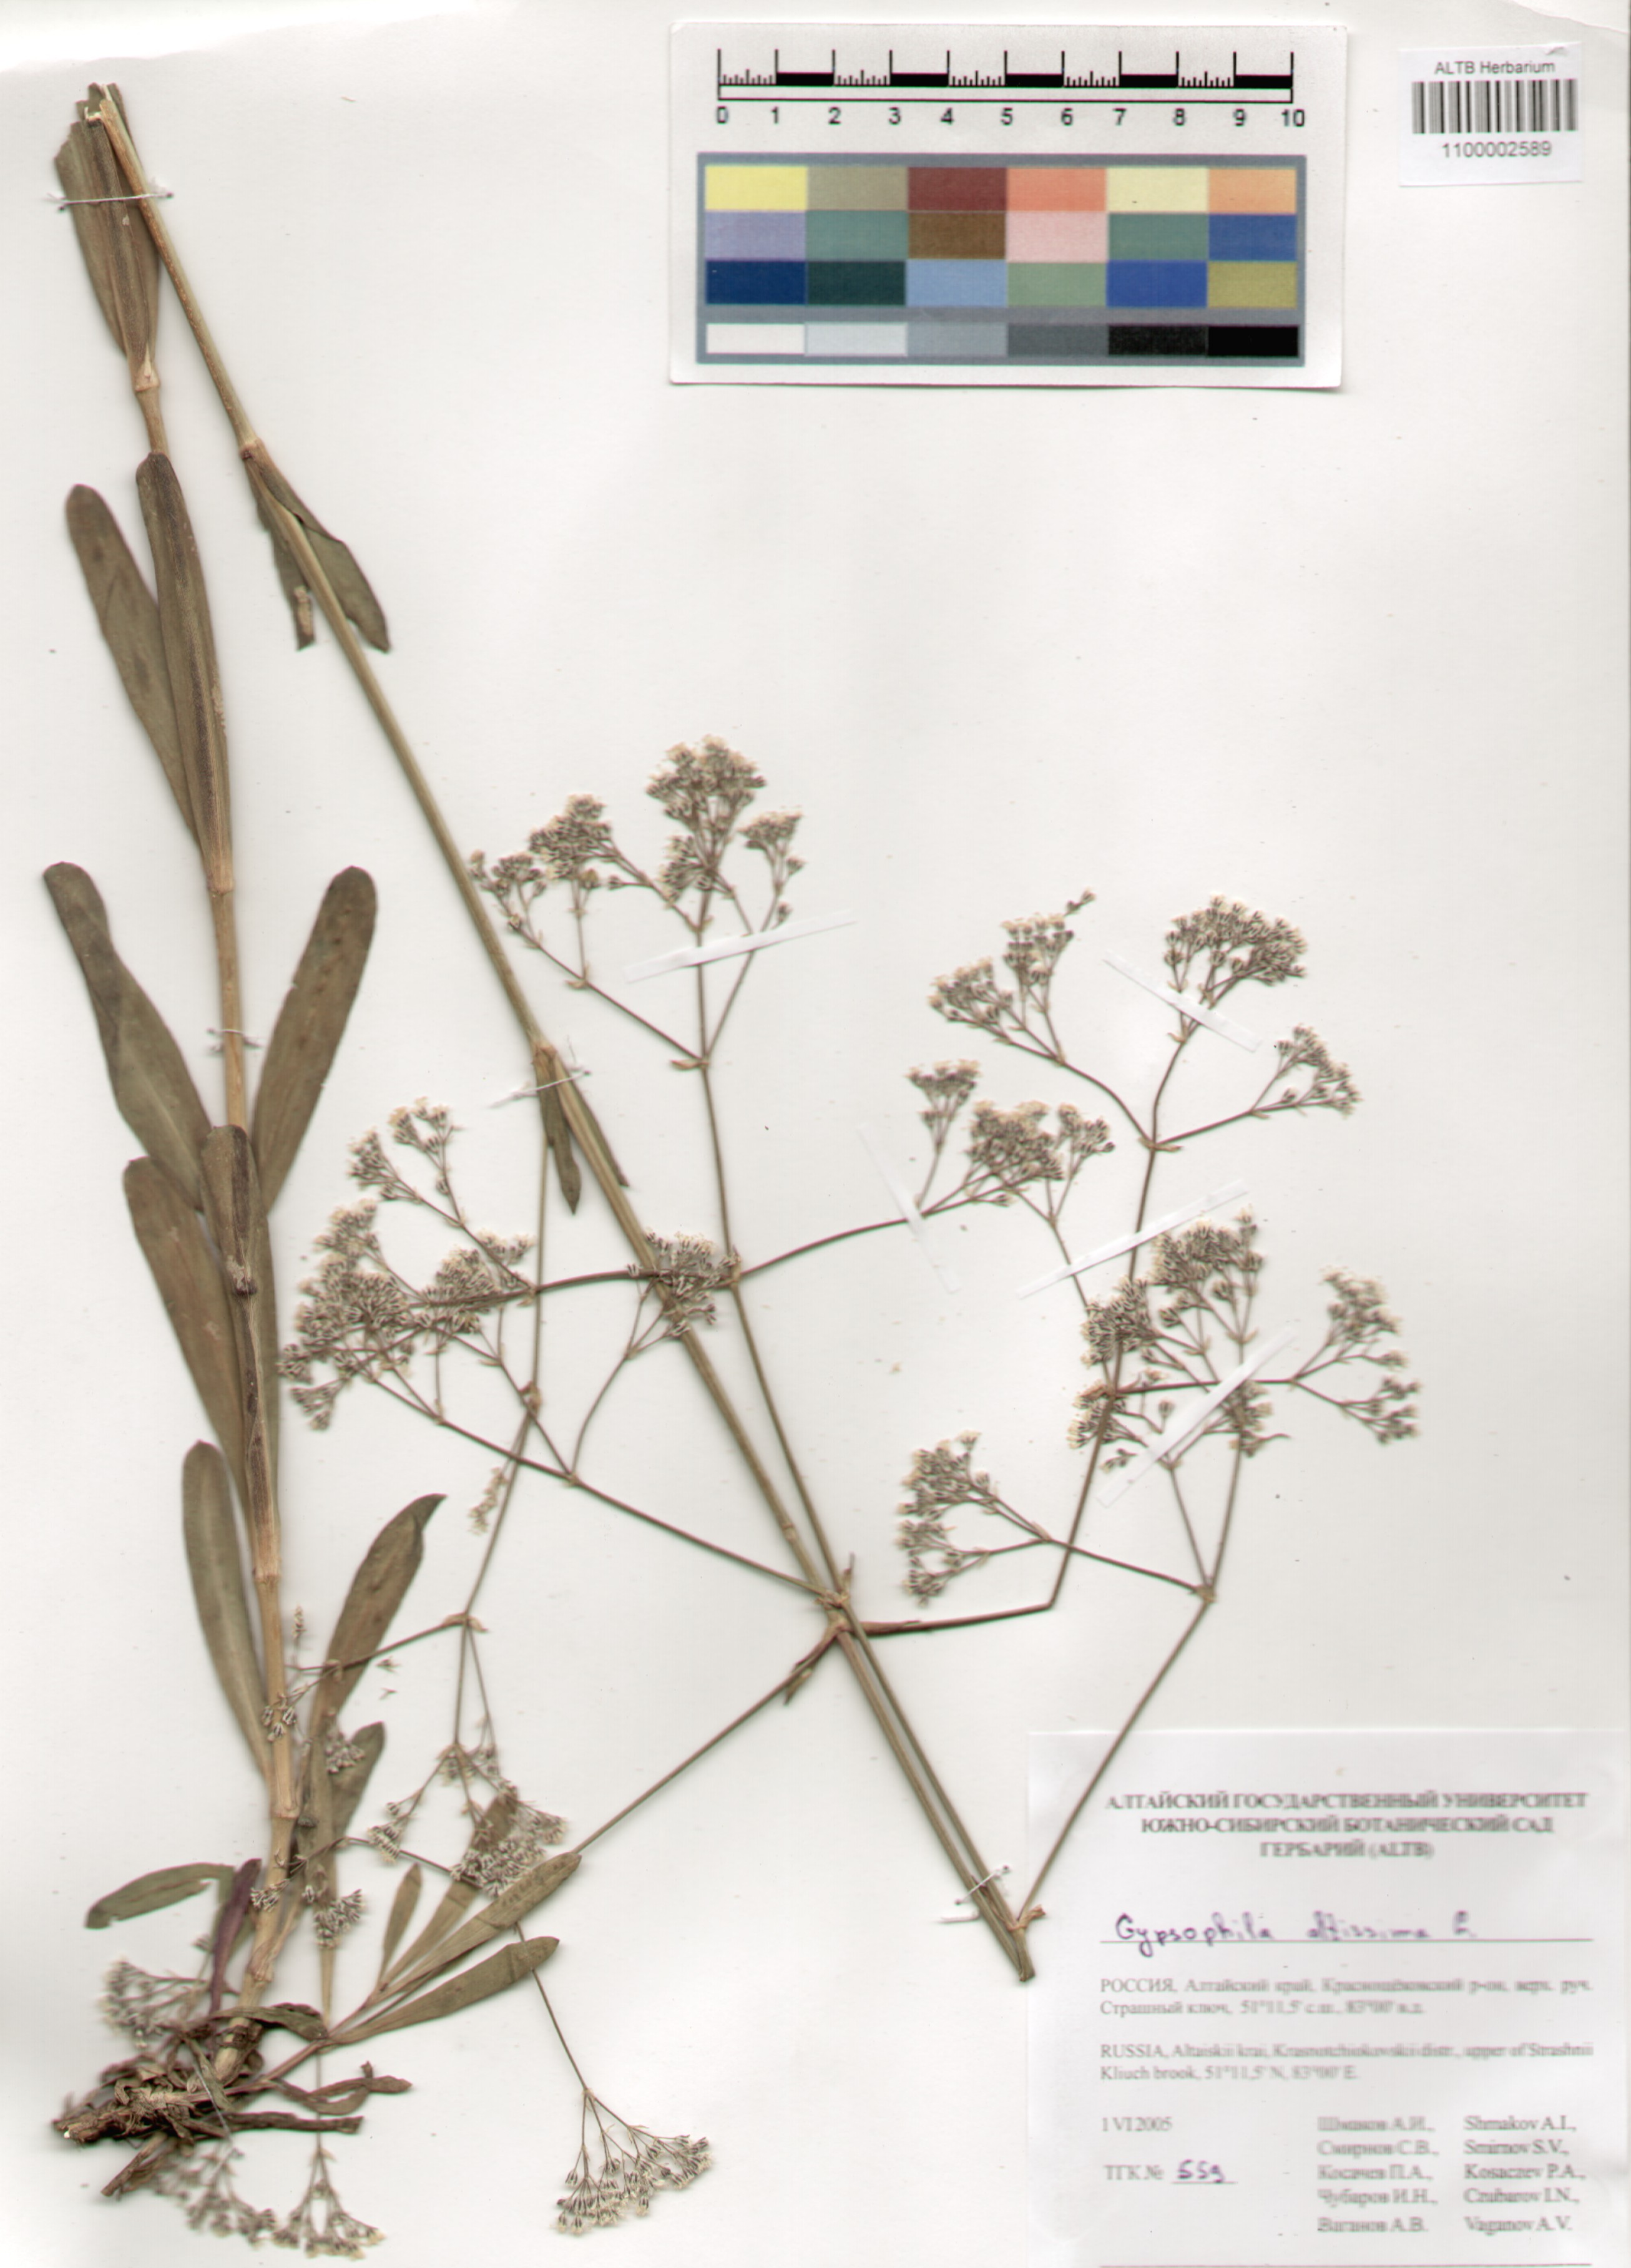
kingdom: Plantae
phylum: Tracheophyta
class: Magnoliopsida
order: Caryophyllales
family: Caryophyllaceae
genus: Gypsophila
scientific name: Gypsophila altissima
